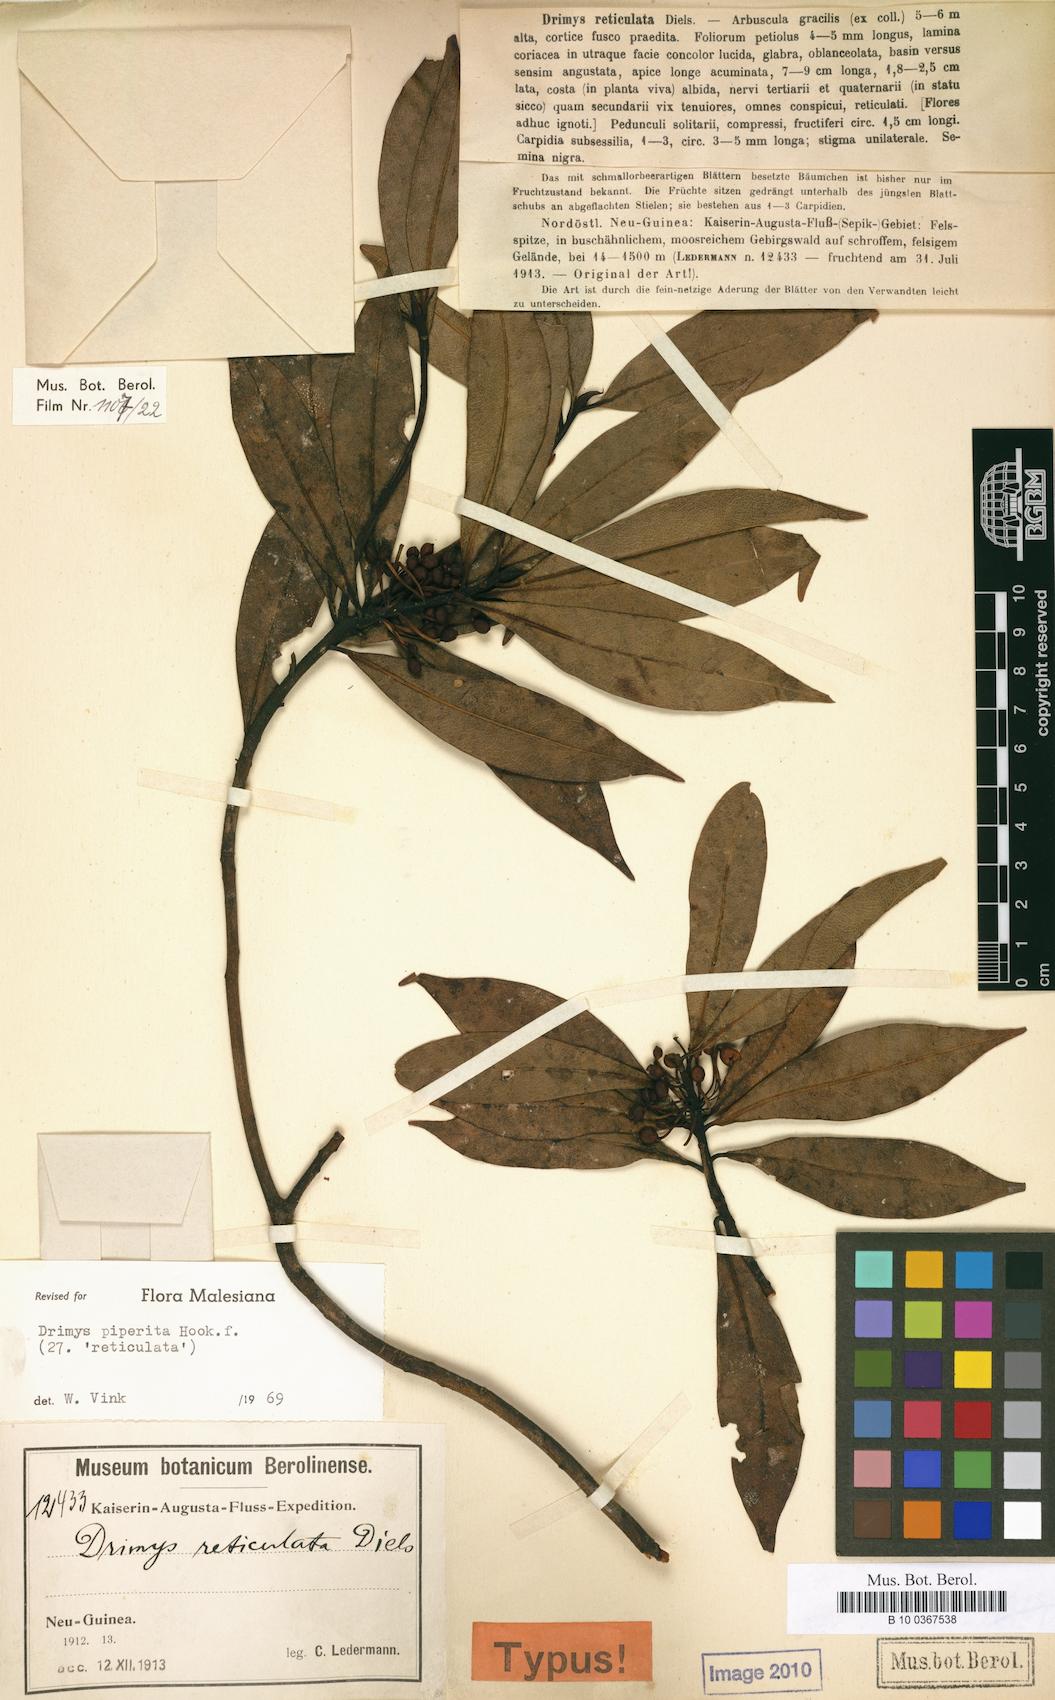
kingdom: Plantae
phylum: Tracheophyta
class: Magnoliopsida
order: Canellales
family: Winteraceae
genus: Drimys
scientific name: Drimys piperita
